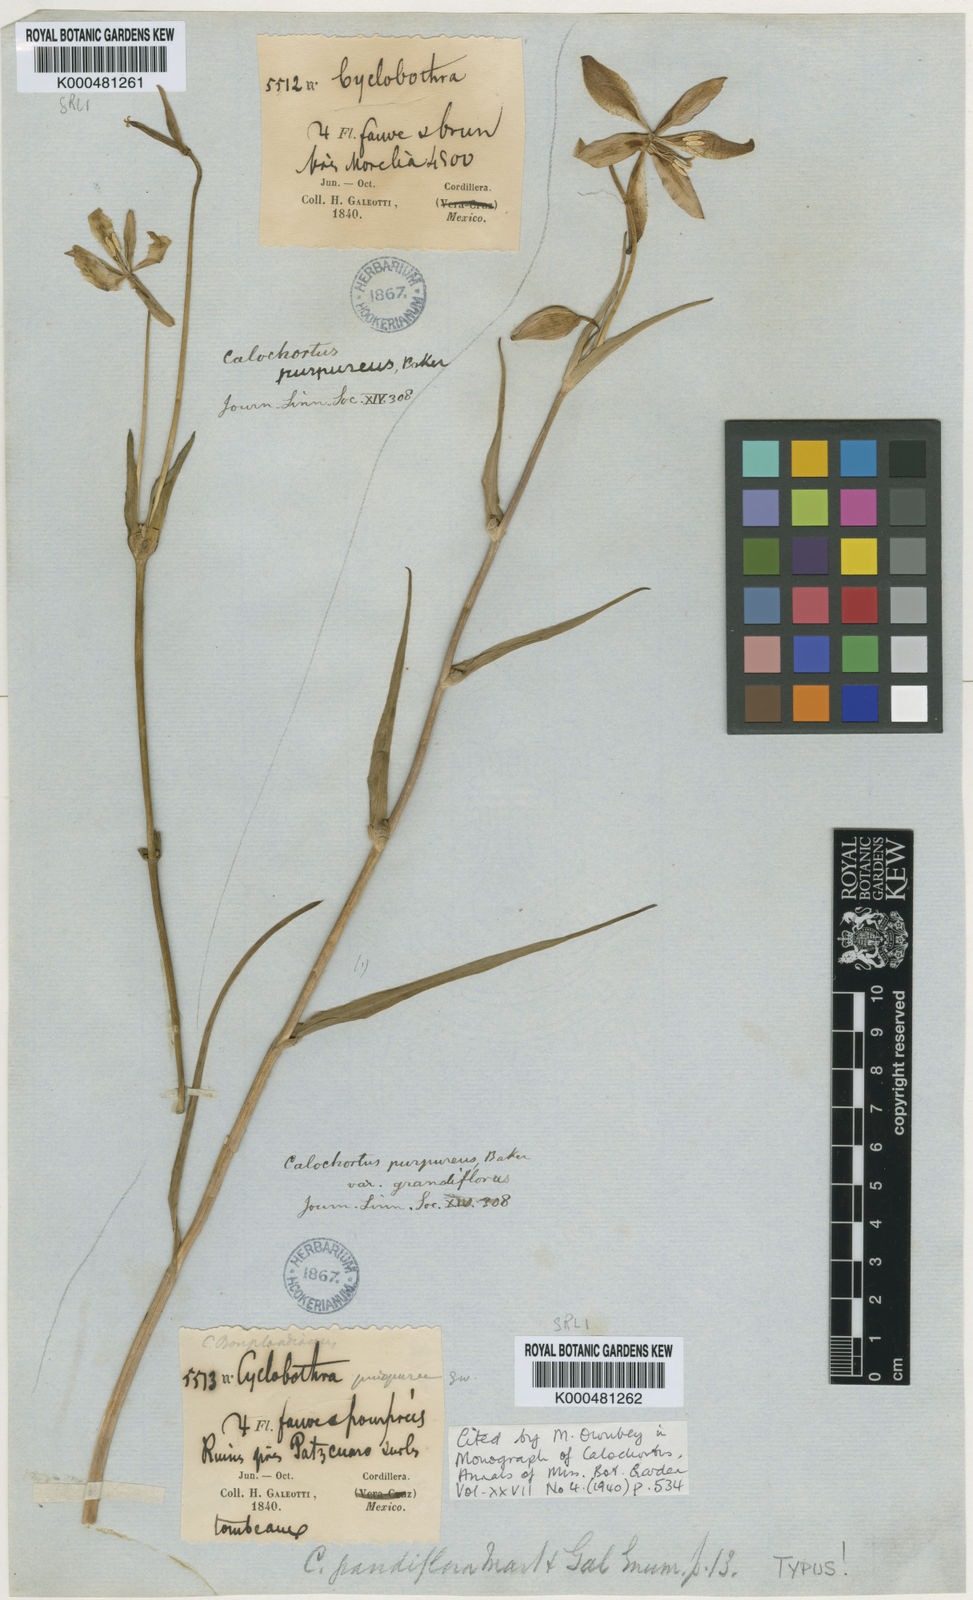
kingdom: Plantae
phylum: Tracheophyta
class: Liliopsida
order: Liliales
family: Liliaceae
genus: Calochortus
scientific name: Calochortus purpureus
